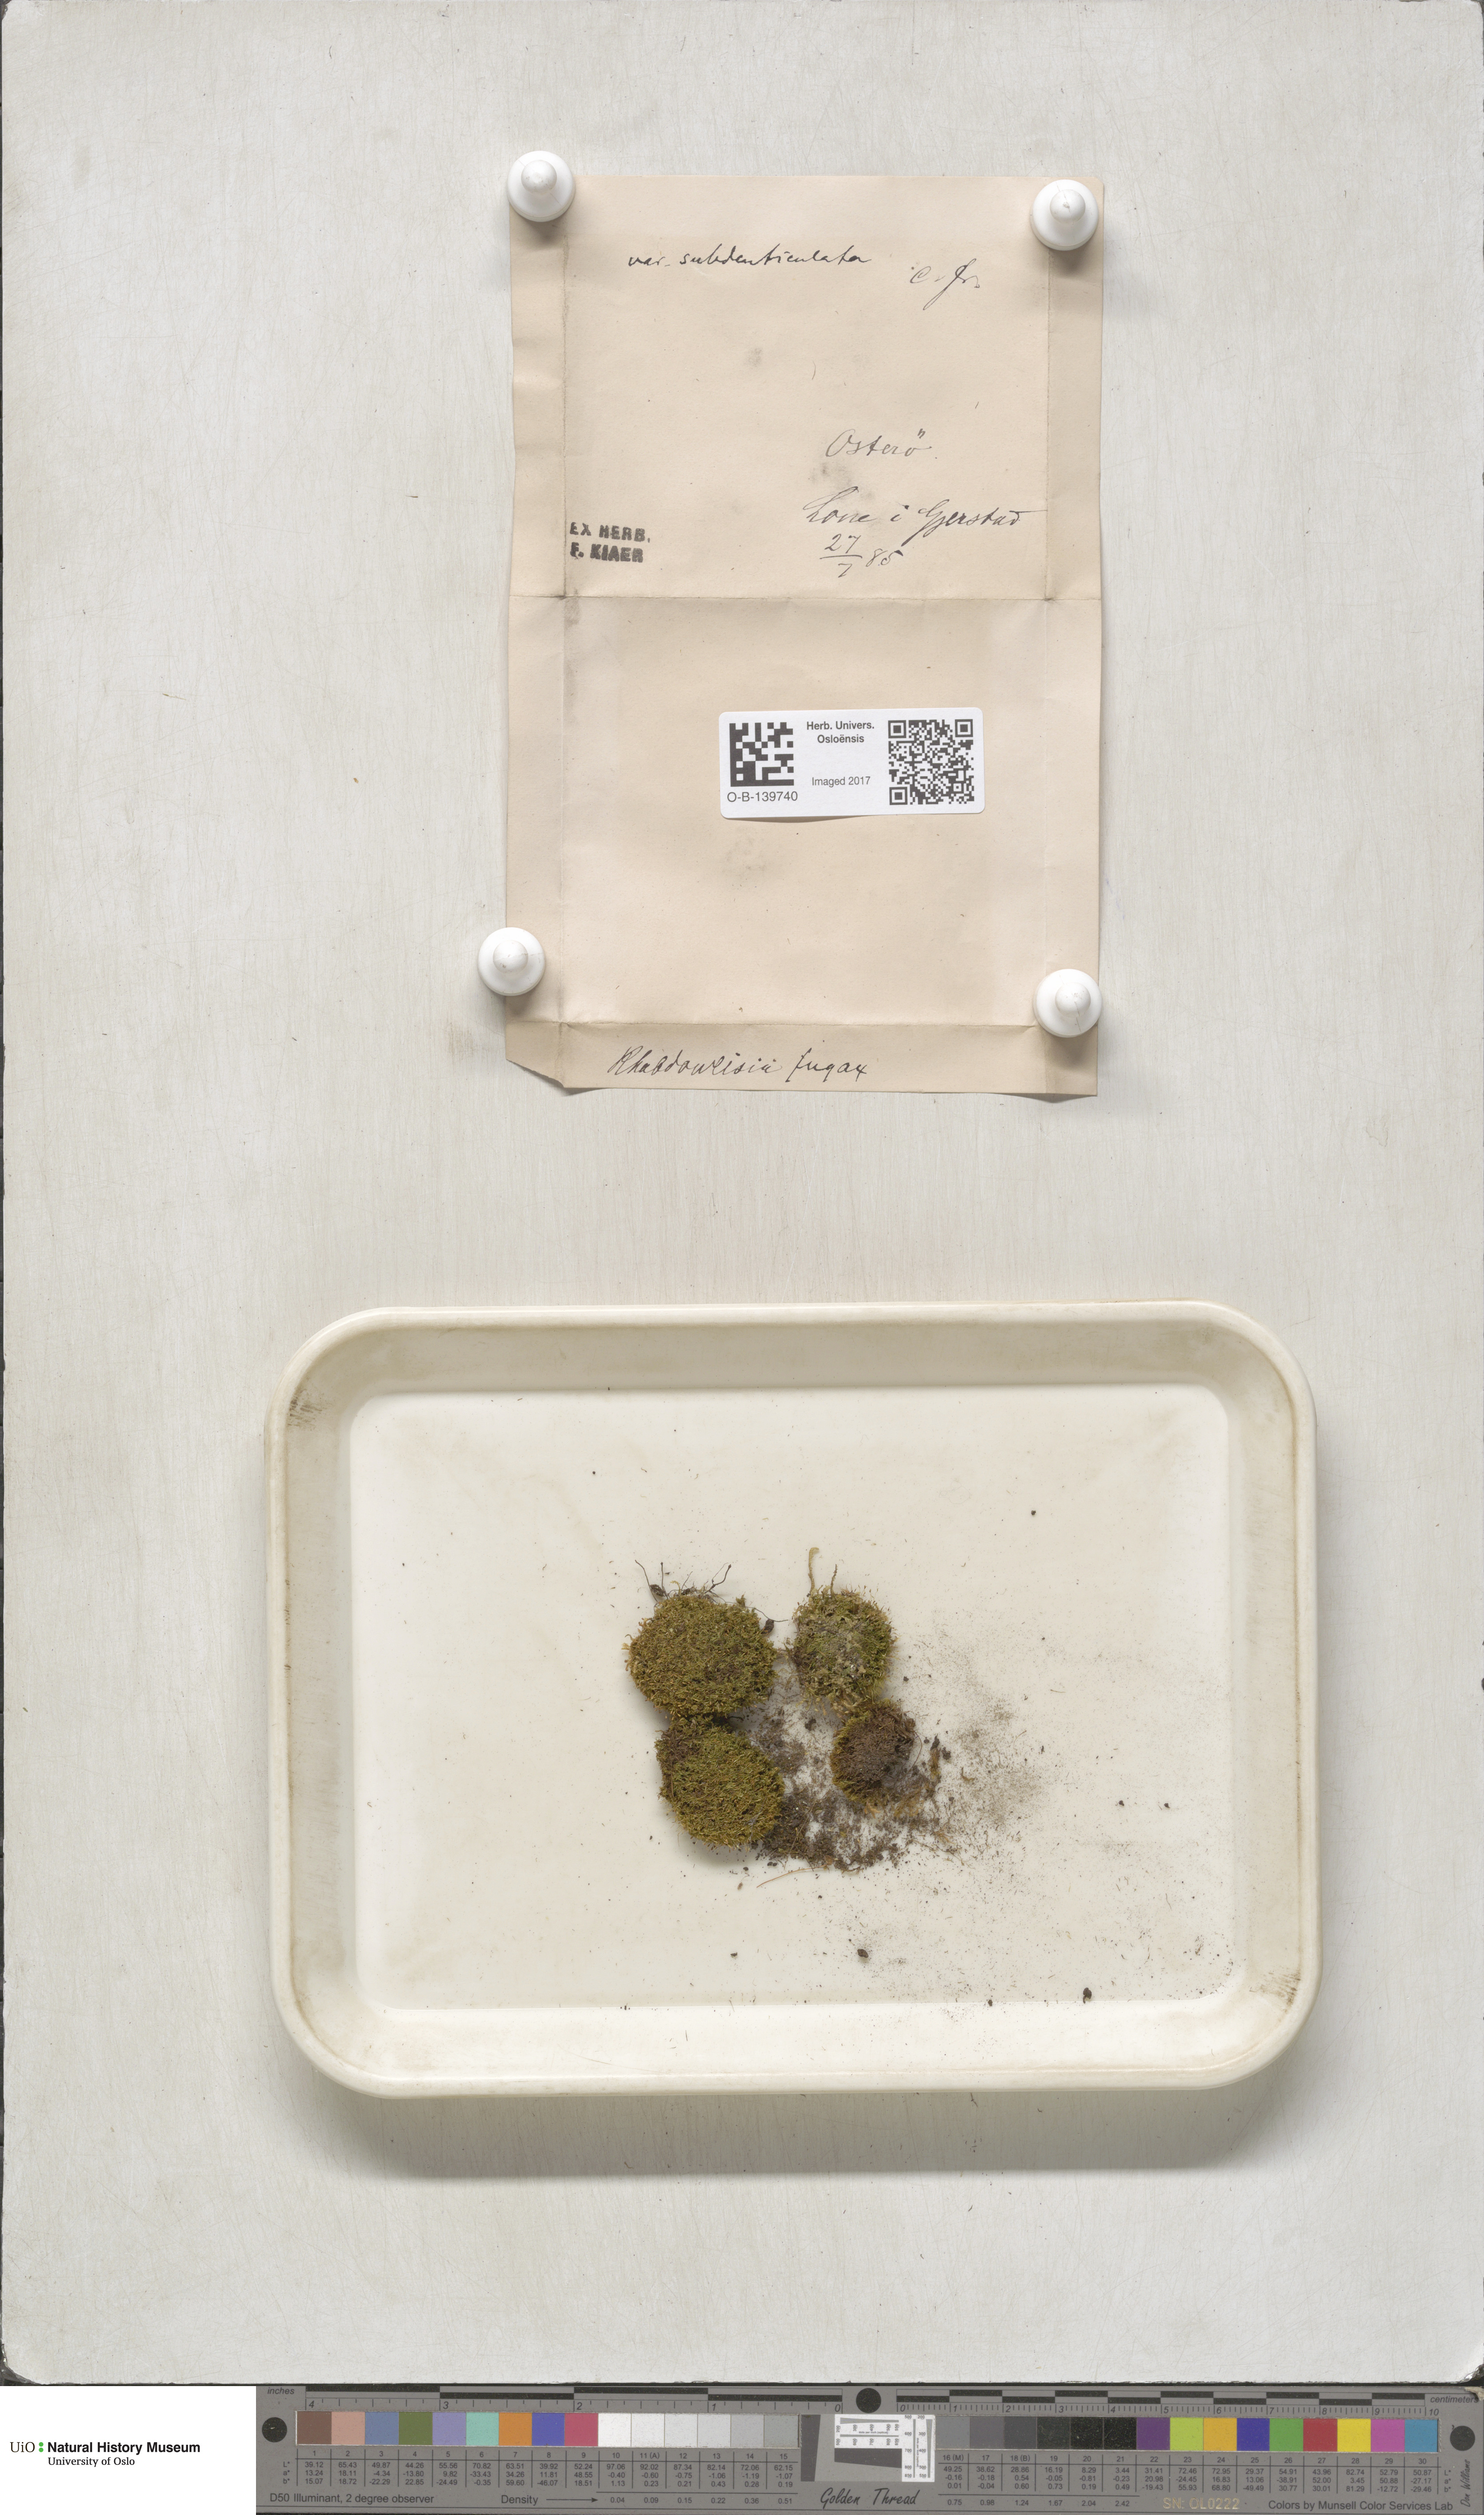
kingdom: Plantae
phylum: Bryophyta
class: Bryopsida
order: Dicranales
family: Rhabdoweisiaceae
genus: Rhabdoweisia
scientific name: Rhabdoweisia fugax
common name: Dwarf streak-moss
